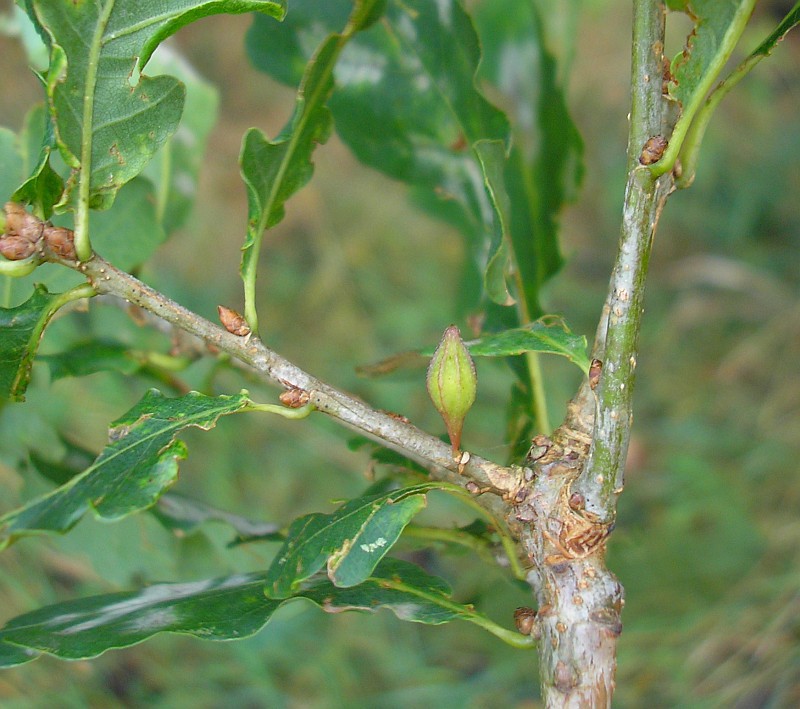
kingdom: Animalia
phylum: Arthropoda
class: Insecta
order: Hymenoptera
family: Cynipidae
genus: Andricus
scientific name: Andricus callidoma
